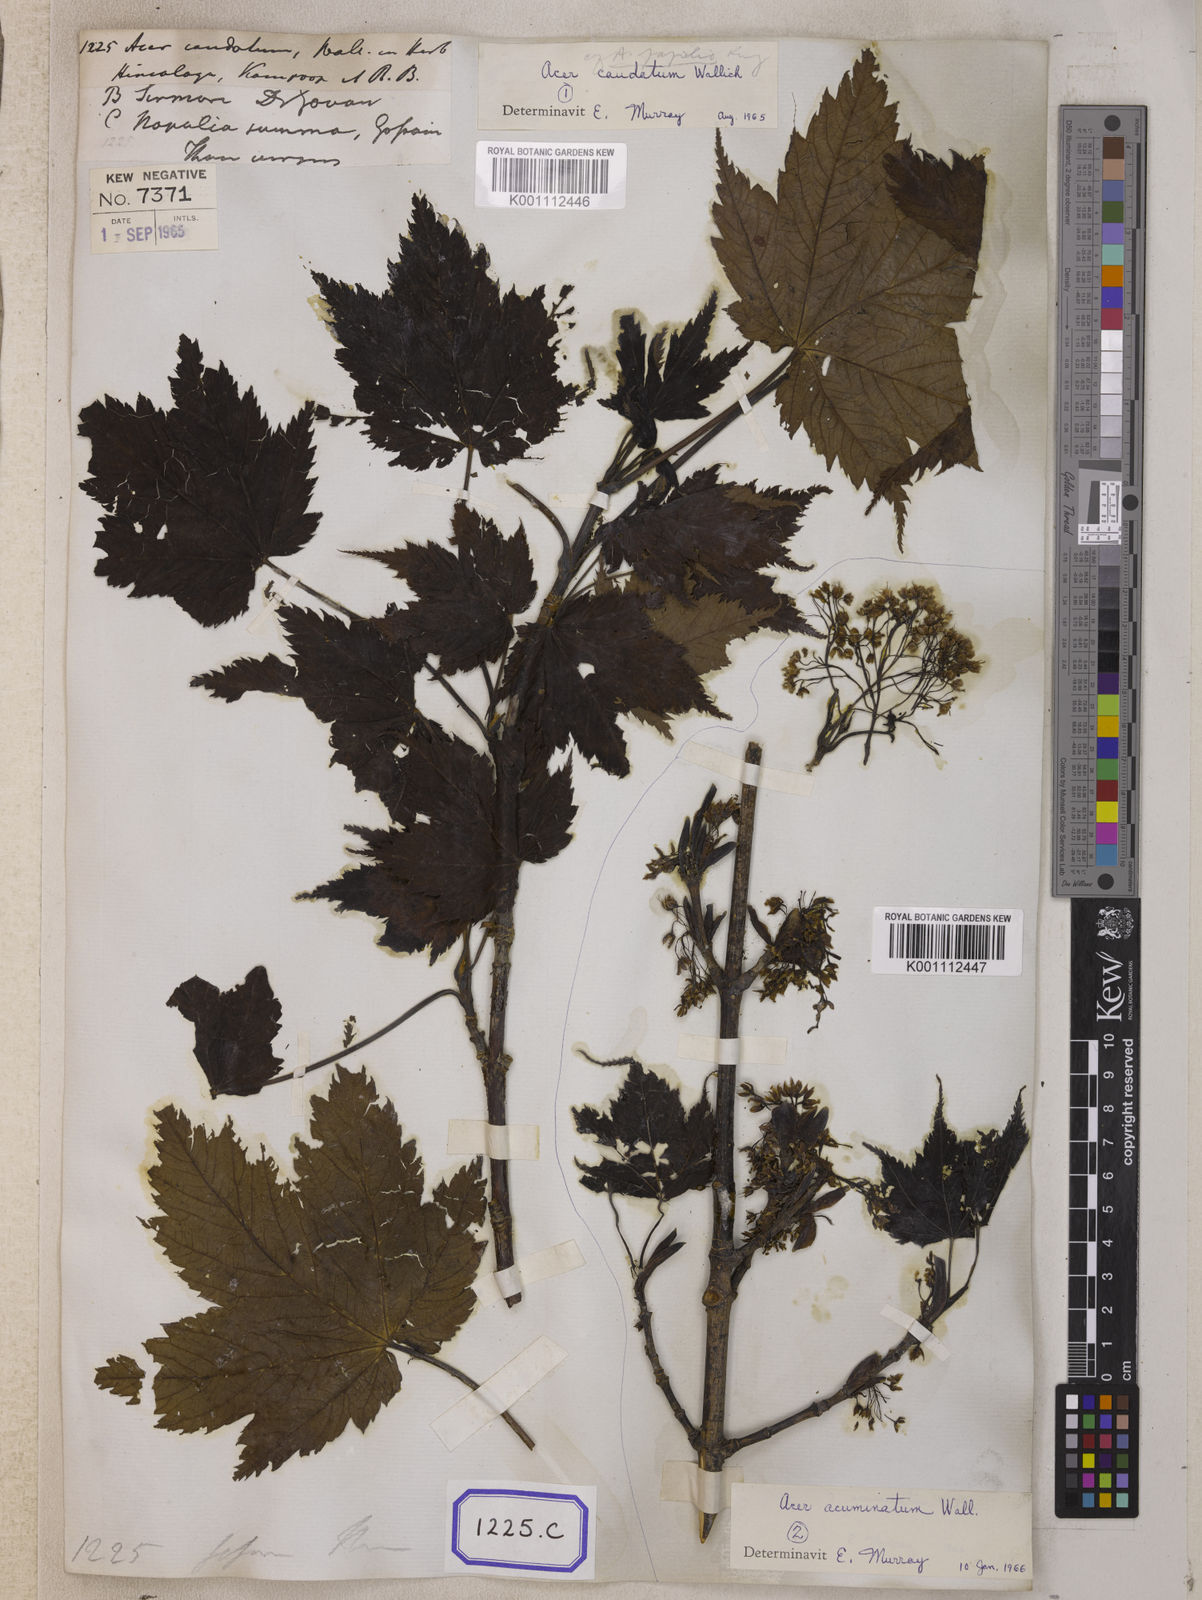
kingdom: Plantae
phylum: Tracheophyta
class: Magnoliopsida
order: Sapindales
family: Sapindaceae
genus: Acer
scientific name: Acer caudatum
